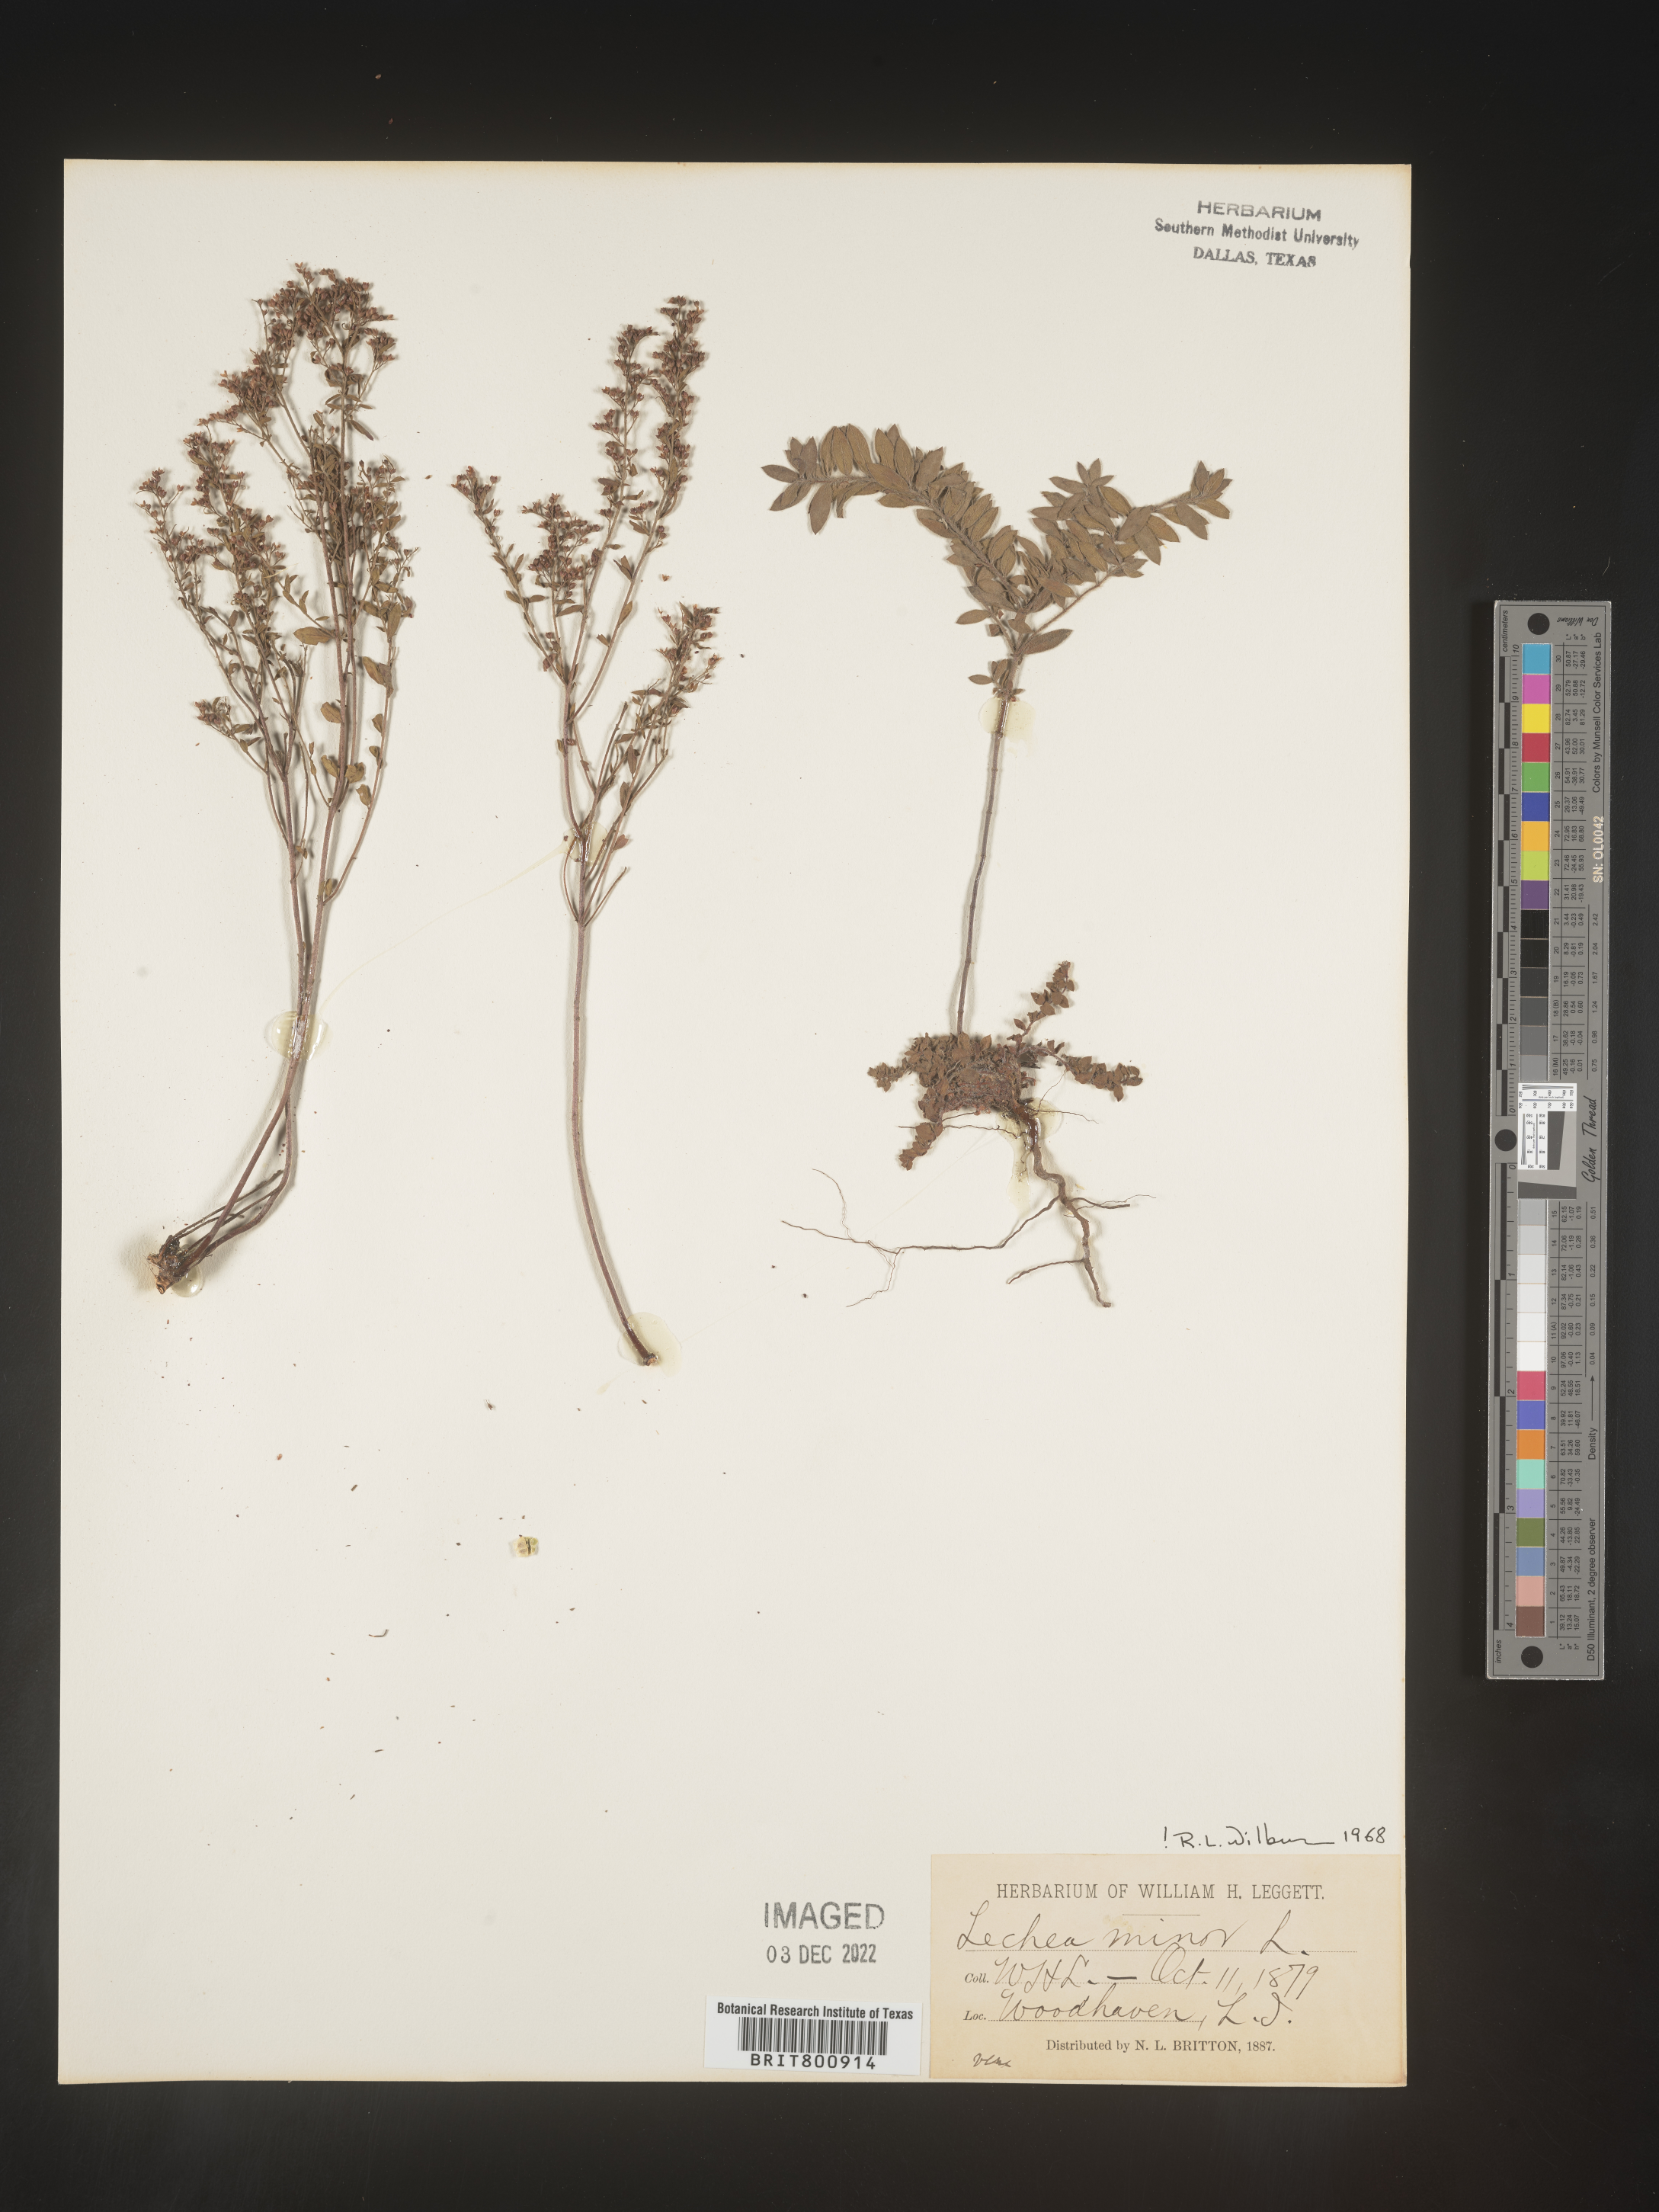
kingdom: Plantae
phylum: Tracheophyta
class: Magnoliopsida
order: Malvales
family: Cistaceae
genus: Lechea
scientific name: Lechea minor
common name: Thyme-leaf pinweed
